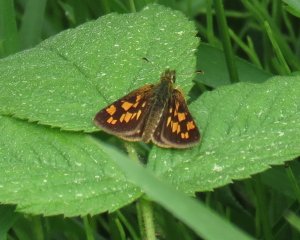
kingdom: Animalia
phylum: Arthropoda
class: Insecta
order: Lepidoptera
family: Hesperiidae
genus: Carterocephalus
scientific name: Carterocephalus palaemon
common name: Chequered Skipper
